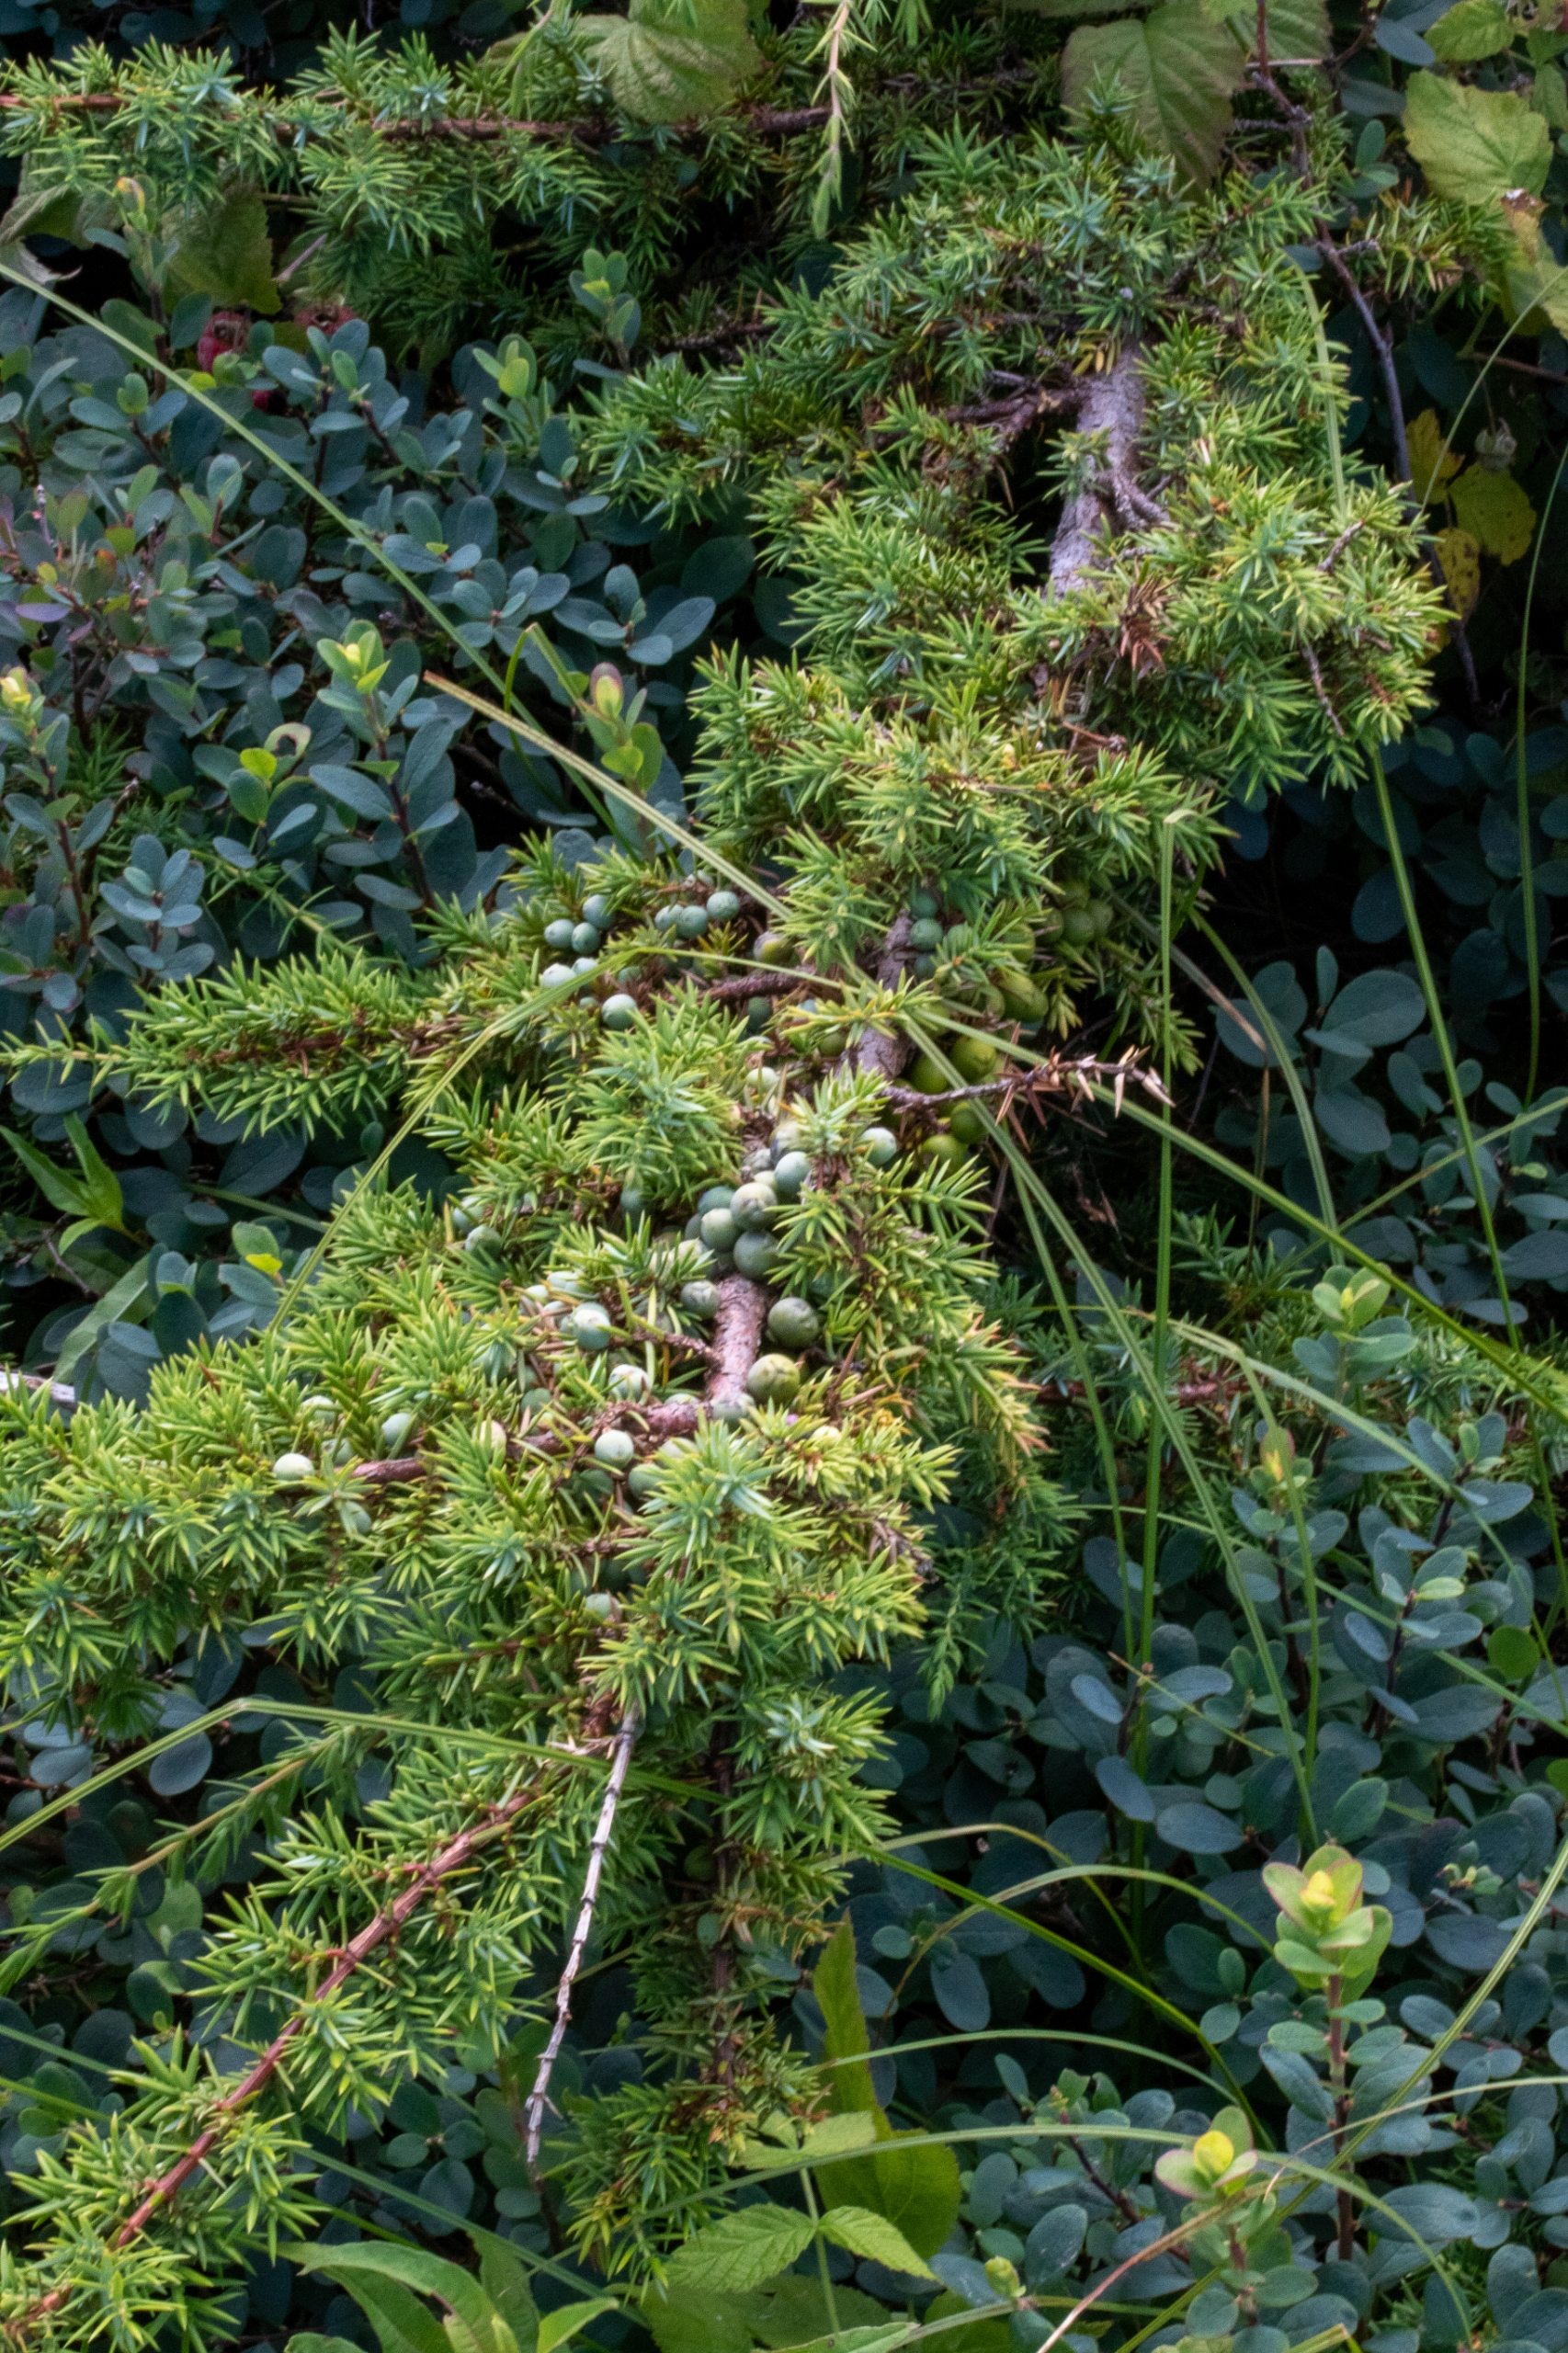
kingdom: Plantae
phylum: Tracheophyta
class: Pinopsida
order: Pinales
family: Cupressaceae
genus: Juniperus
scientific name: Juniperus communis
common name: Almindelig ene
